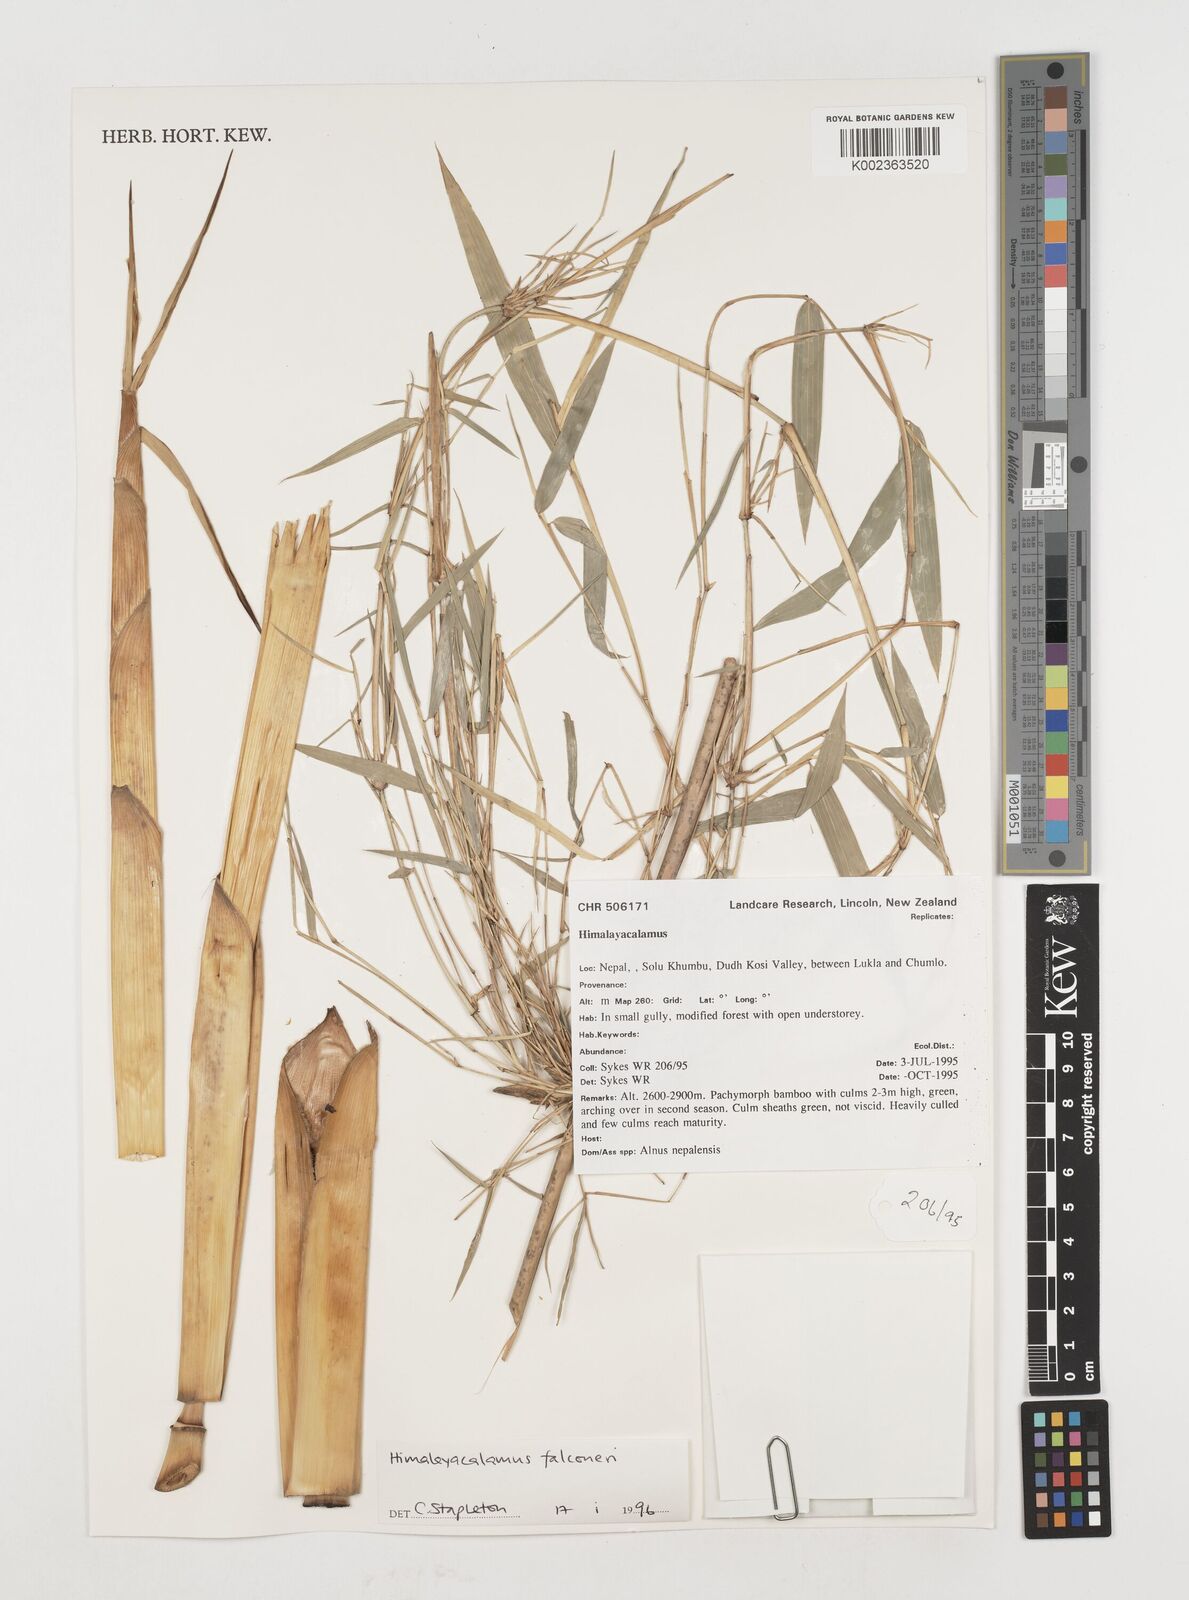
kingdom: Plantae
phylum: Tracheophyta
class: Liliopsida
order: Poales
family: Poaceae
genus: Himalayacalamus
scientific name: Himalayacalamus
